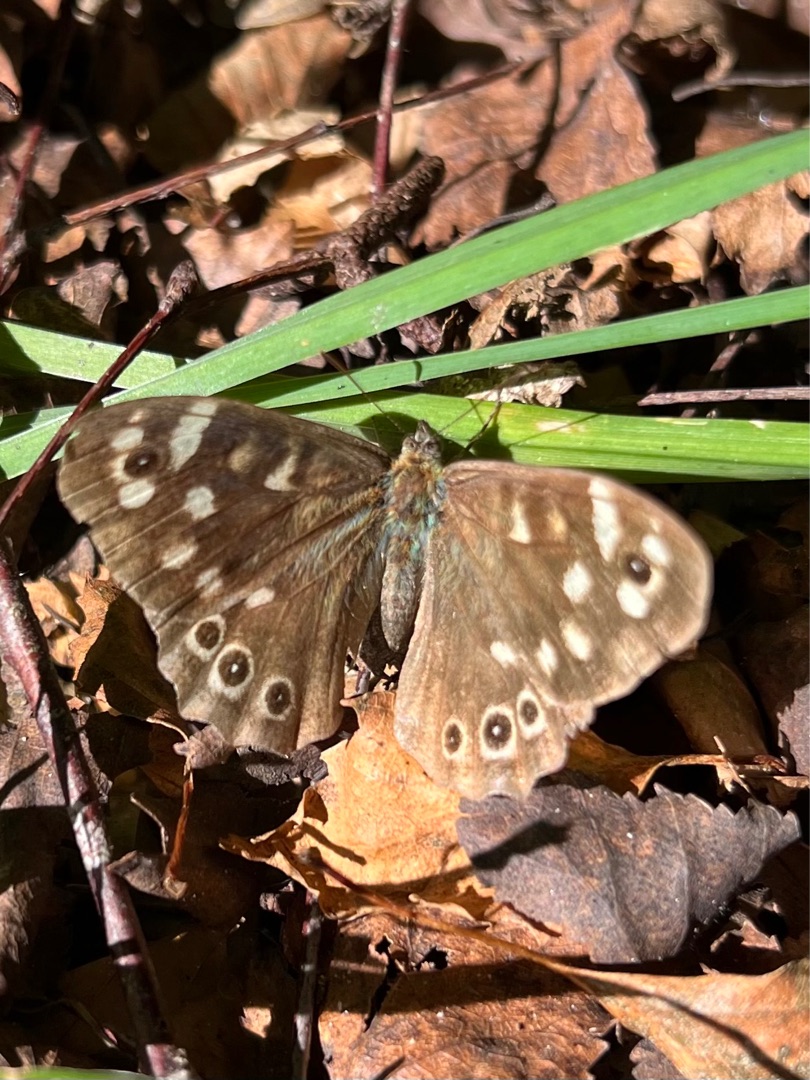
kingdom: Animalia
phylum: Arthropoda
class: Insecta
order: Lepidoptera
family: Nymphalidae
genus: Pararge
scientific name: Pararge aegeria
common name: Skovrandøje
